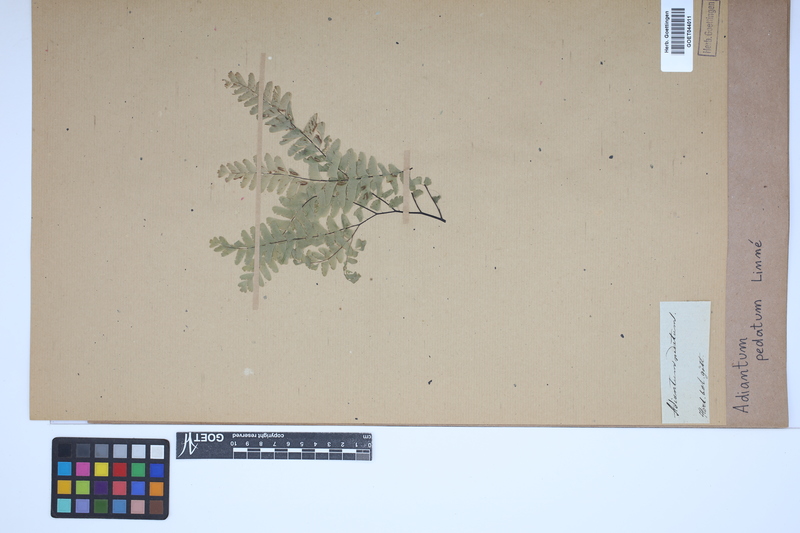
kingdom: Plantae
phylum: Tracheophyta
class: Polypodiopsida
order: Polypodiales
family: Pteridaceae
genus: Adiantum
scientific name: Adiantum pedatum
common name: Five-finger fern
